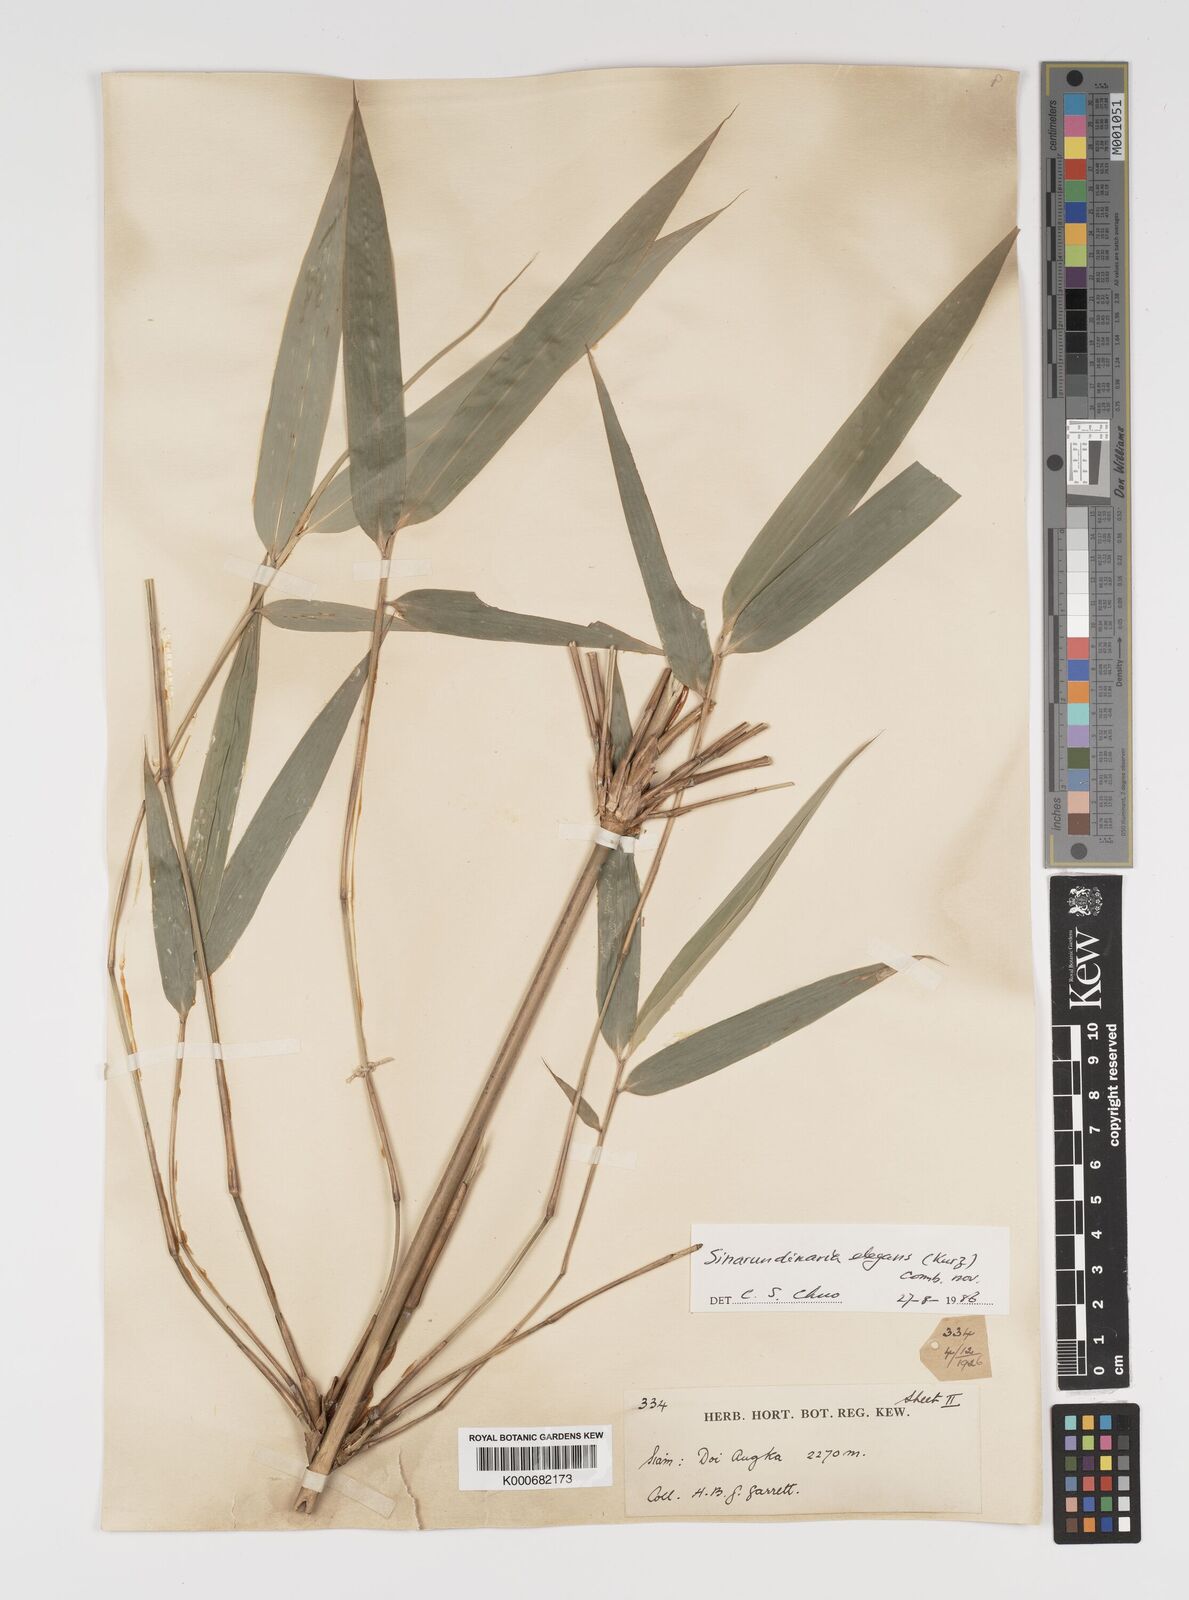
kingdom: Plantae
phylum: Tracheophyta
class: Liliopsida
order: Poales
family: Poaceae
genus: Yushania
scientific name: Yushania schmidiana
